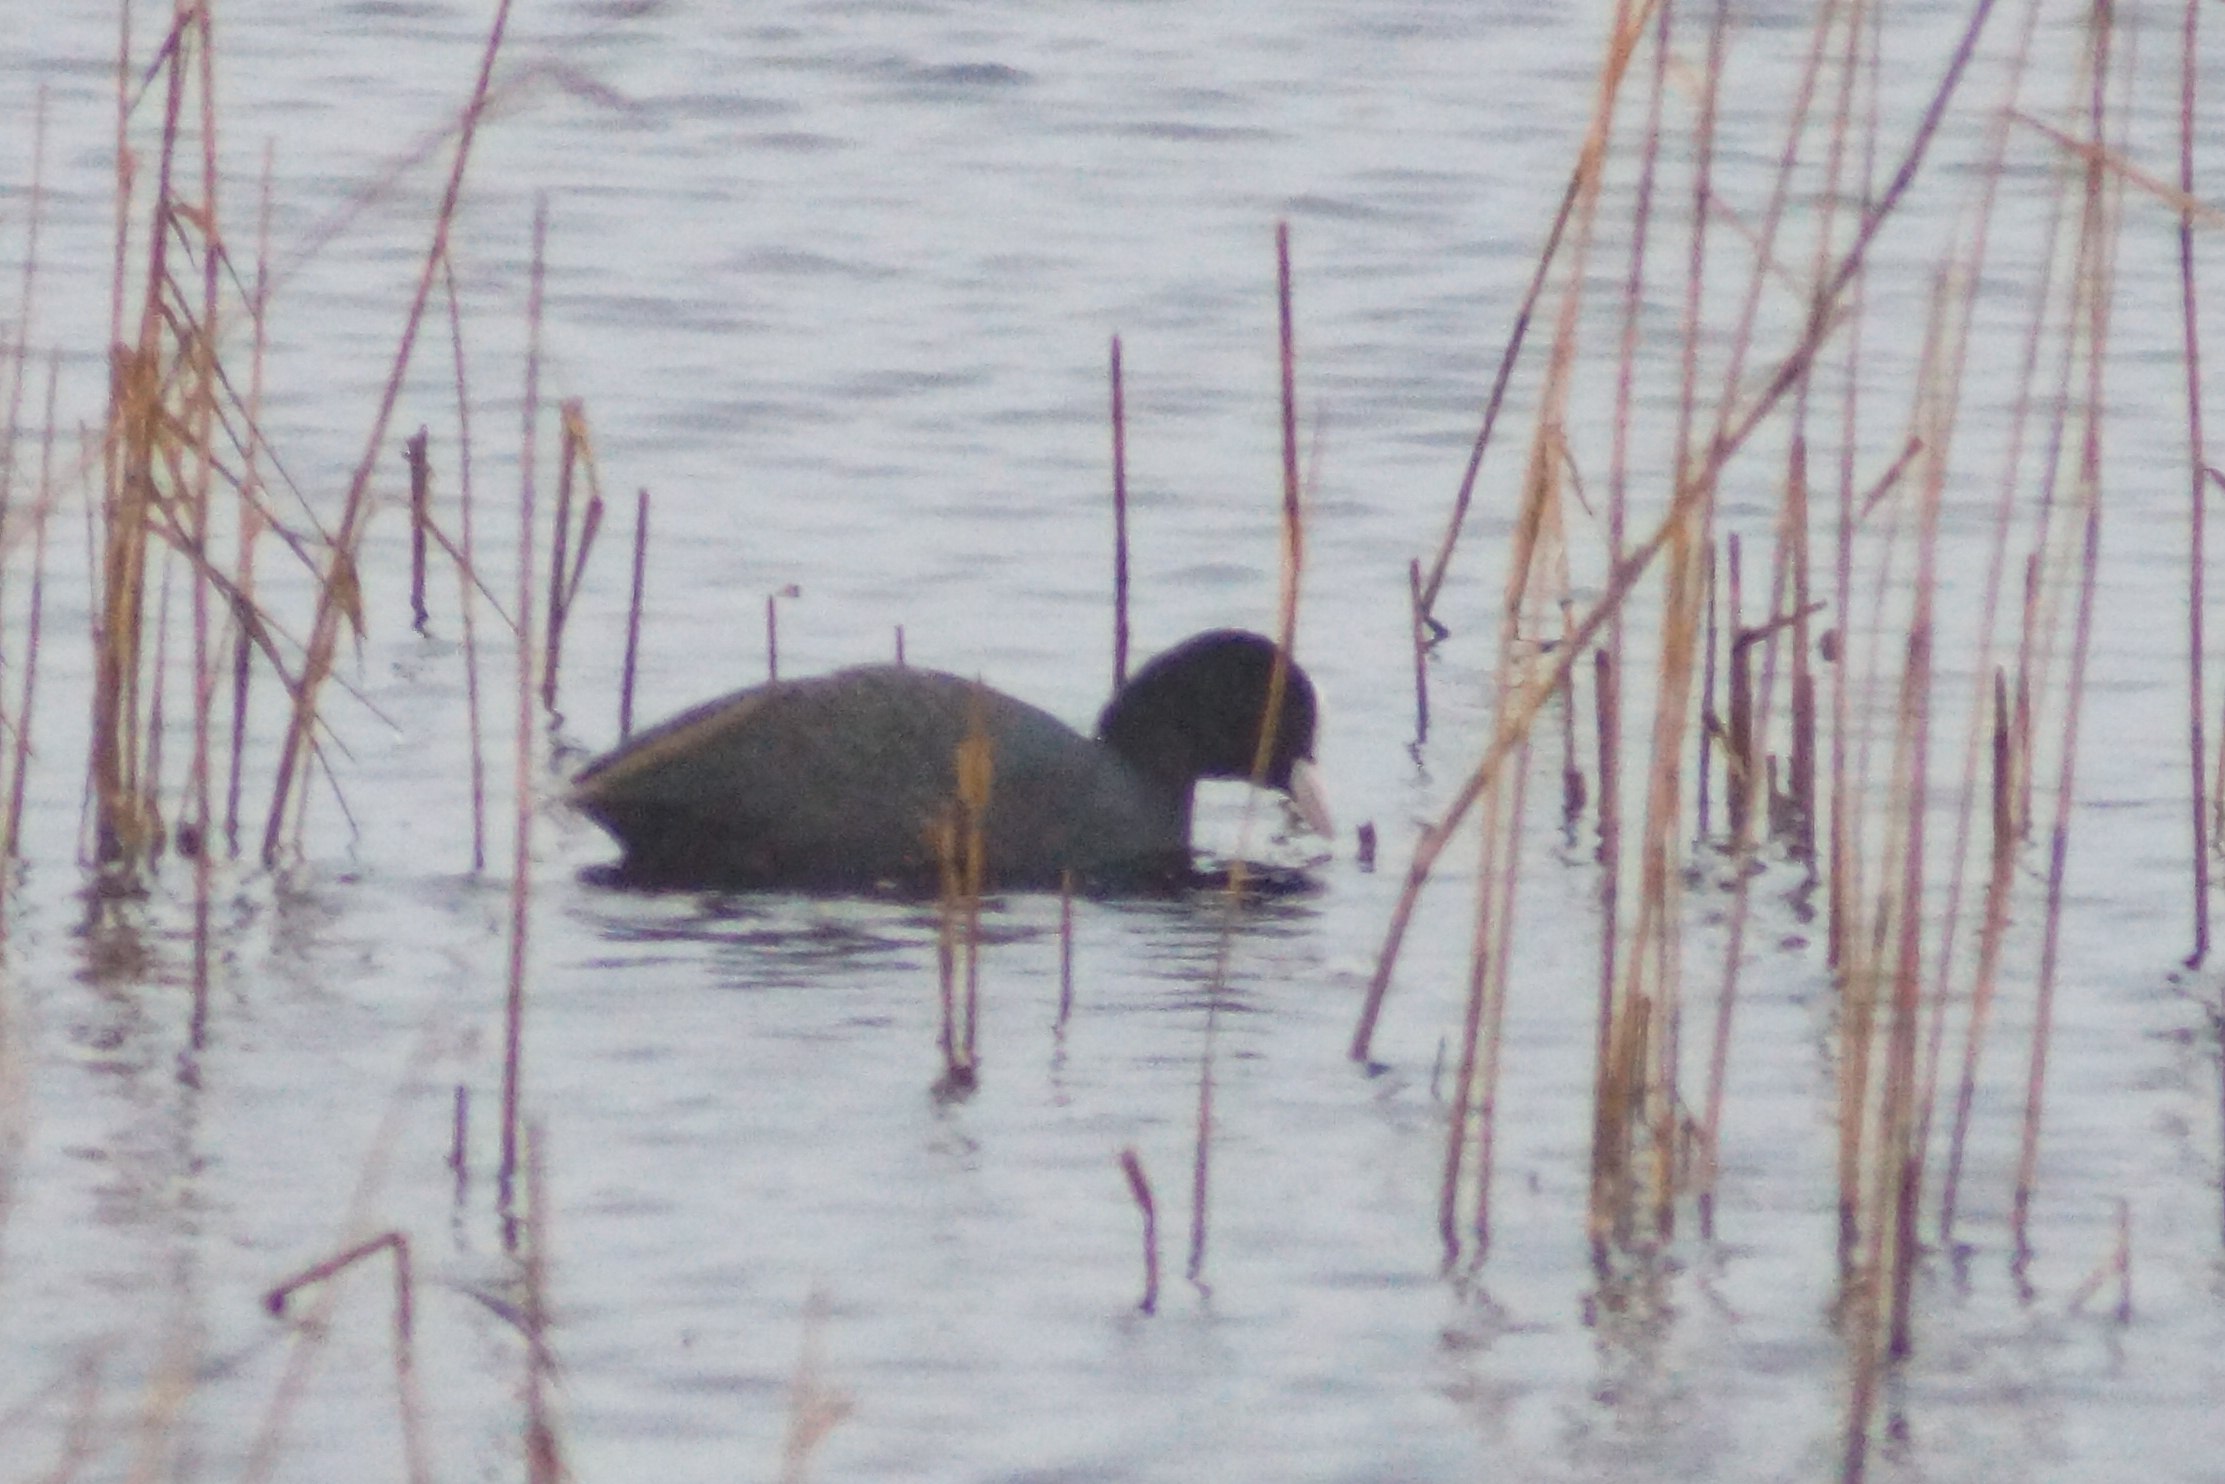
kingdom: Animalia
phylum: Chordata
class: Aves
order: Gruiformes
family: Rallidae
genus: Fulica
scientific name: Fulica atra
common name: Blishøne
